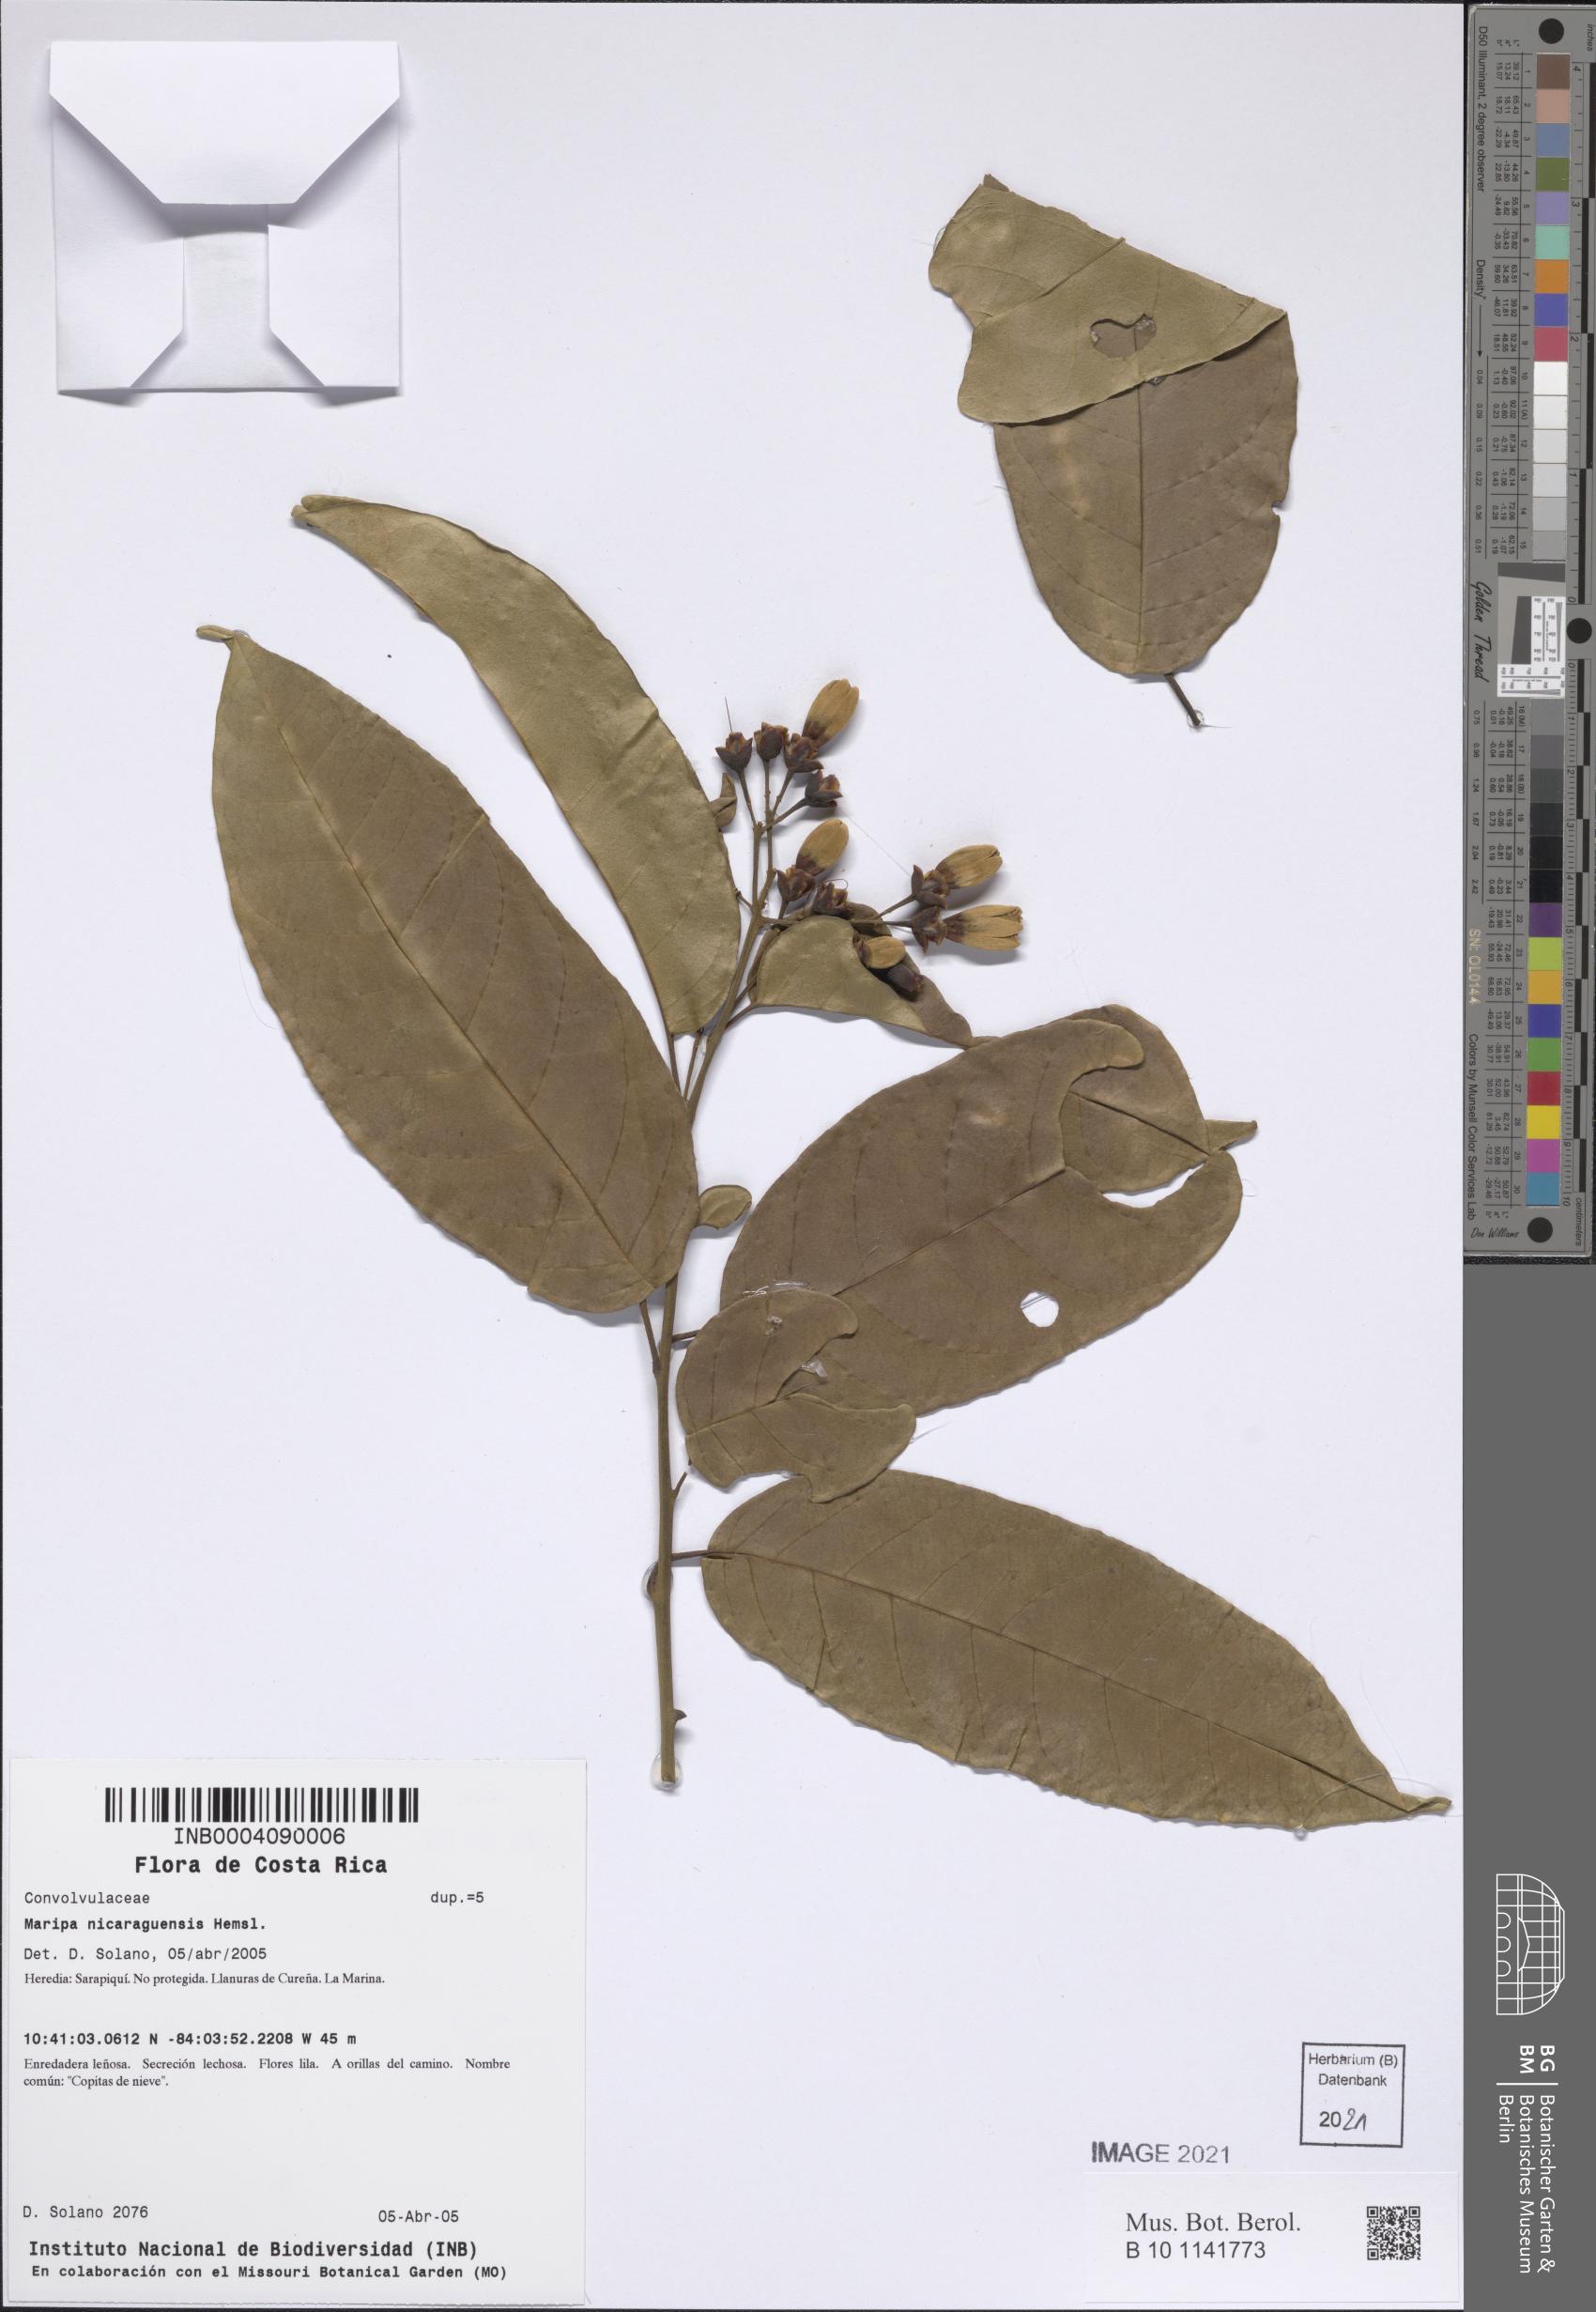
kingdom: Plantae
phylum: Tracheophyta
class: Magnoliopsida
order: Solanales
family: Convolvulaceae
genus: Maripa
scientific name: Maripa nicaraguensis
